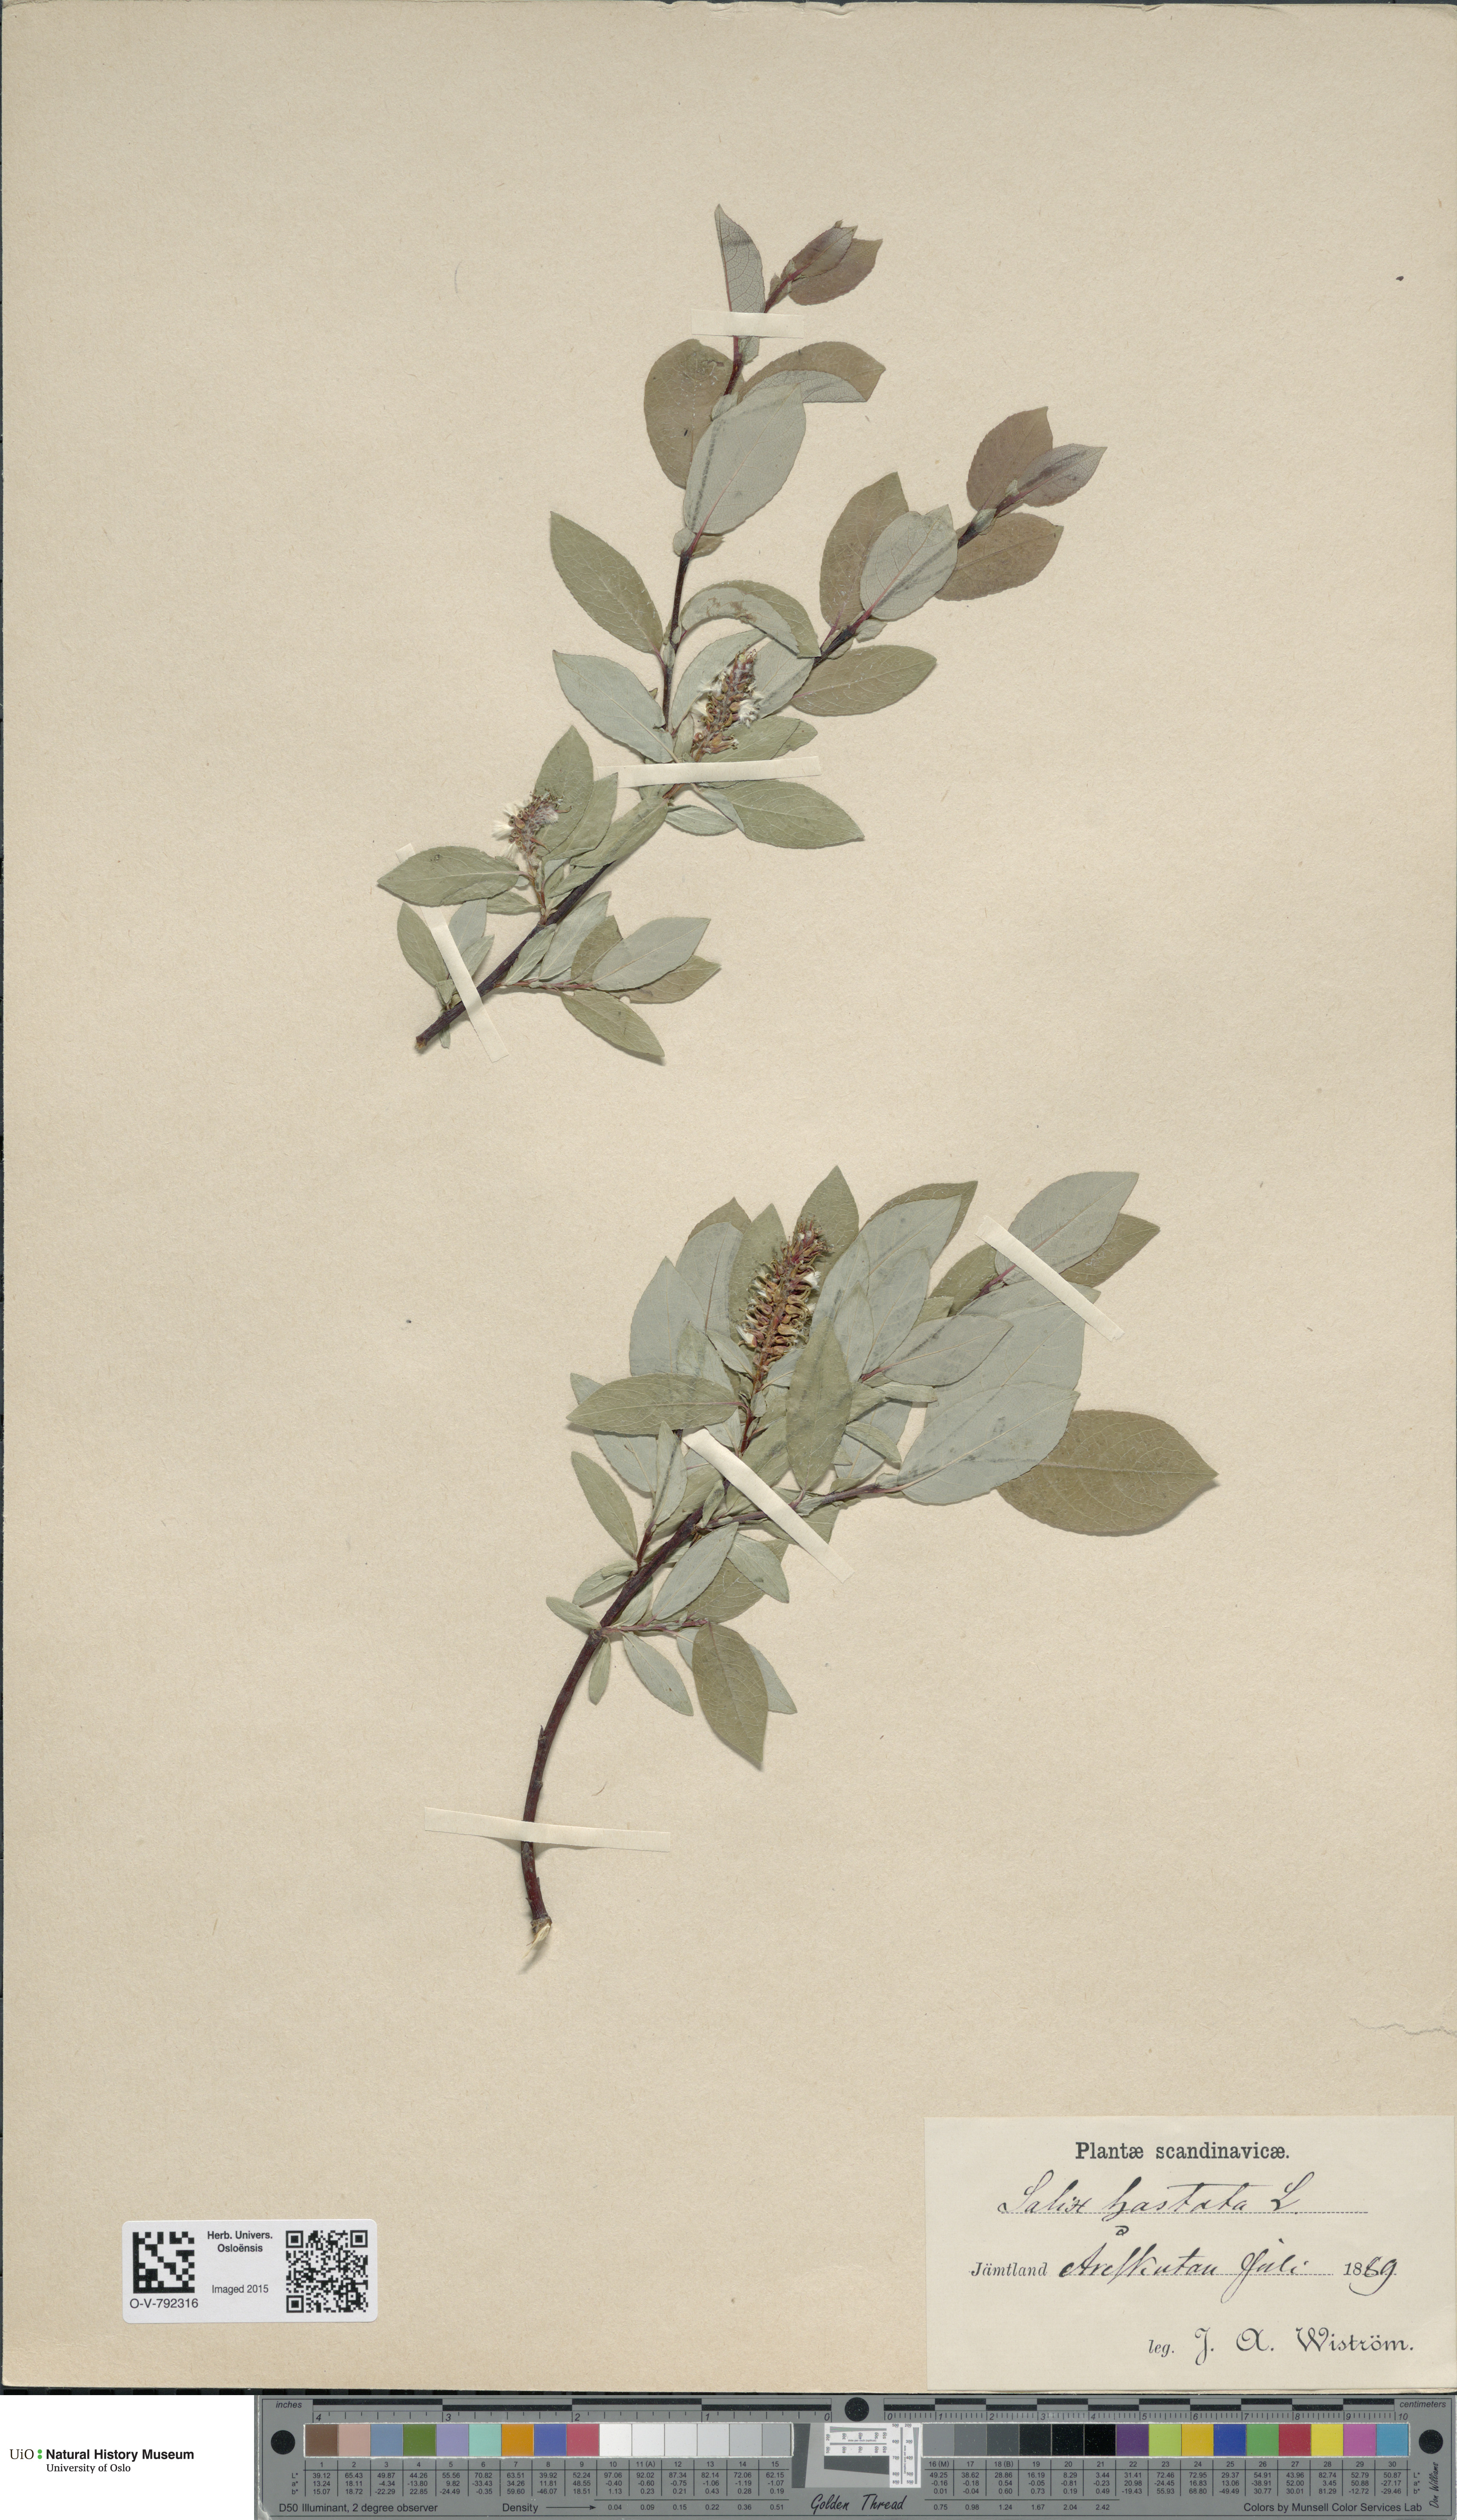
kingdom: Plantae
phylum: Tracheophyta
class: Magnoliopsida
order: Malpighiales
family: Salicaceae
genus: Salix
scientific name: Salix hastata
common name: Halberd willow
